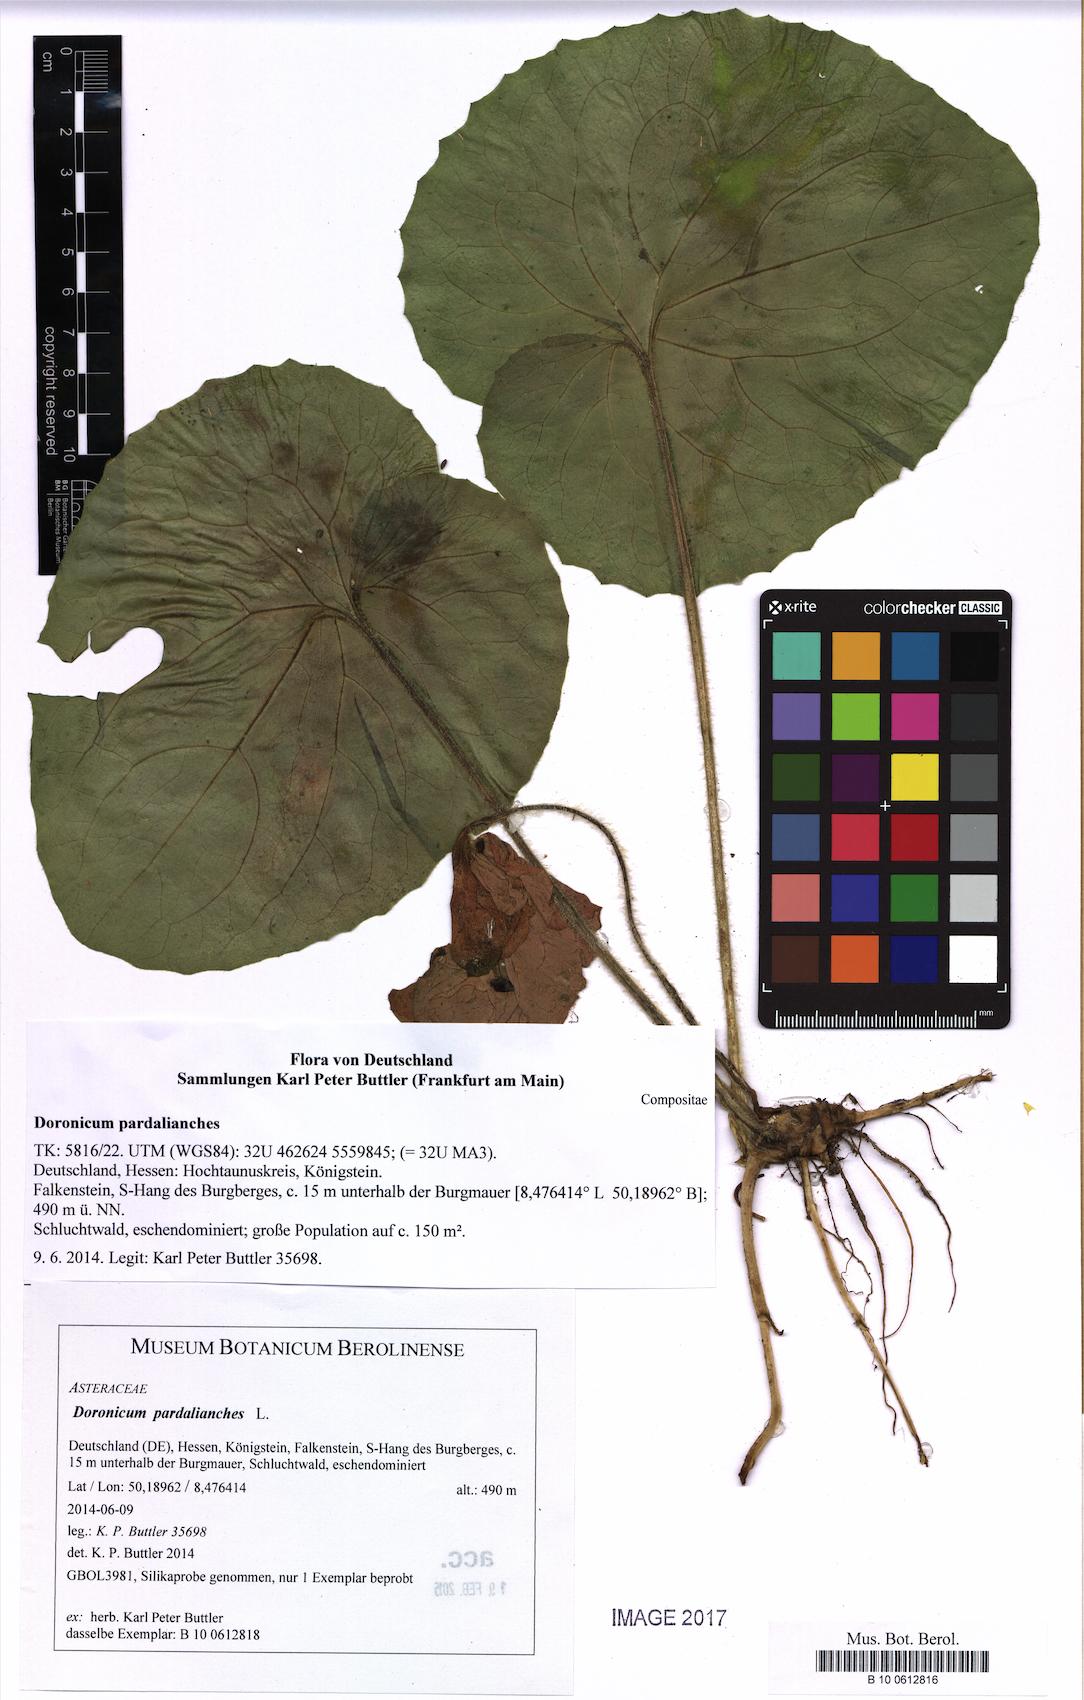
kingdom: Plantae
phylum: Tracheophyta
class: Magnoliopsida
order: Asterales
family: Asteraceae
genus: Doronicum
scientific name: Doronicum pardalianches
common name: Leopard's-bane
